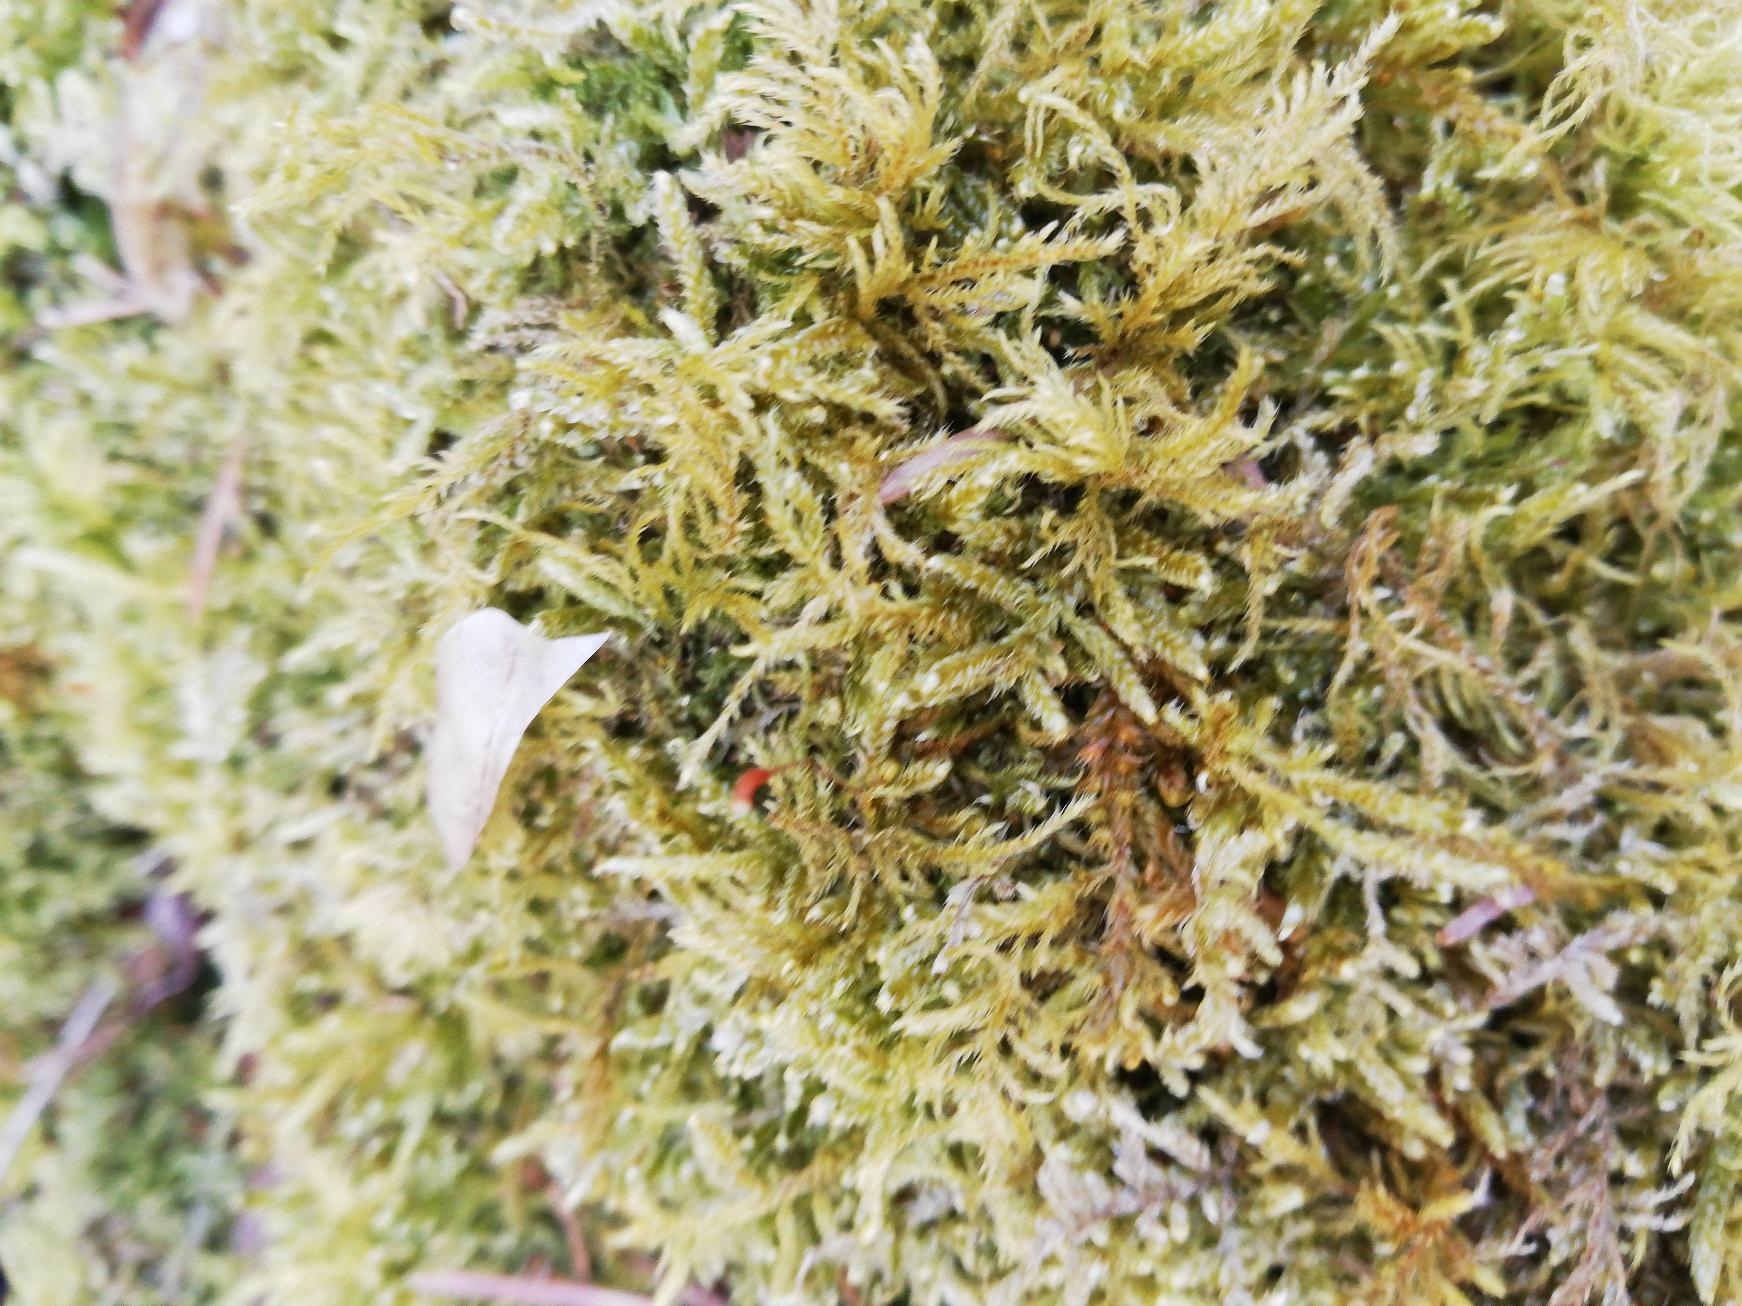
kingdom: Plantae
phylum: Bryophyta
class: Bryopsida
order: Hypnales
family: Brachytheciaceae
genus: Kindbergia
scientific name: Kindbergia praelonga
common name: Forskelligbladet vortetand
